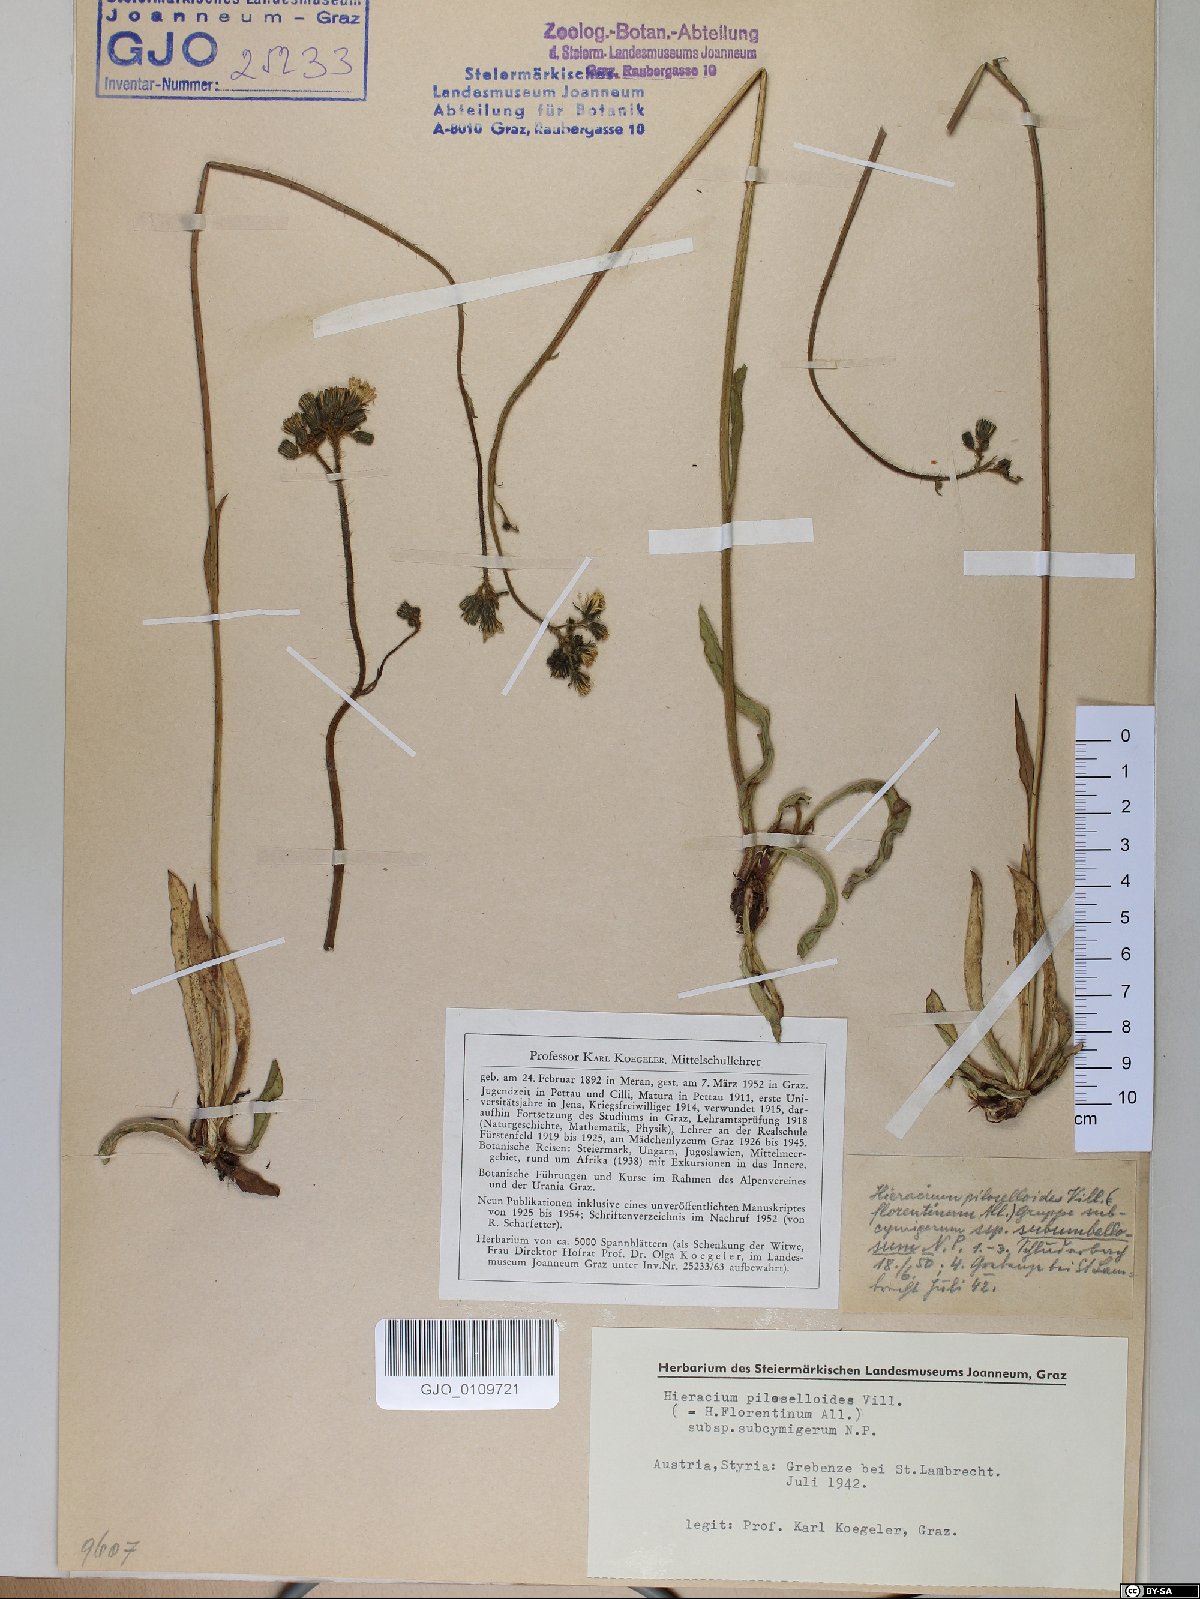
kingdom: Plantae
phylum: Tracheophyta
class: Magnoliopsida
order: Asterales
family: Asteraceae
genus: Pilosella
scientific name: Pilosella piloselloides
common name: Glaucous king-devil
